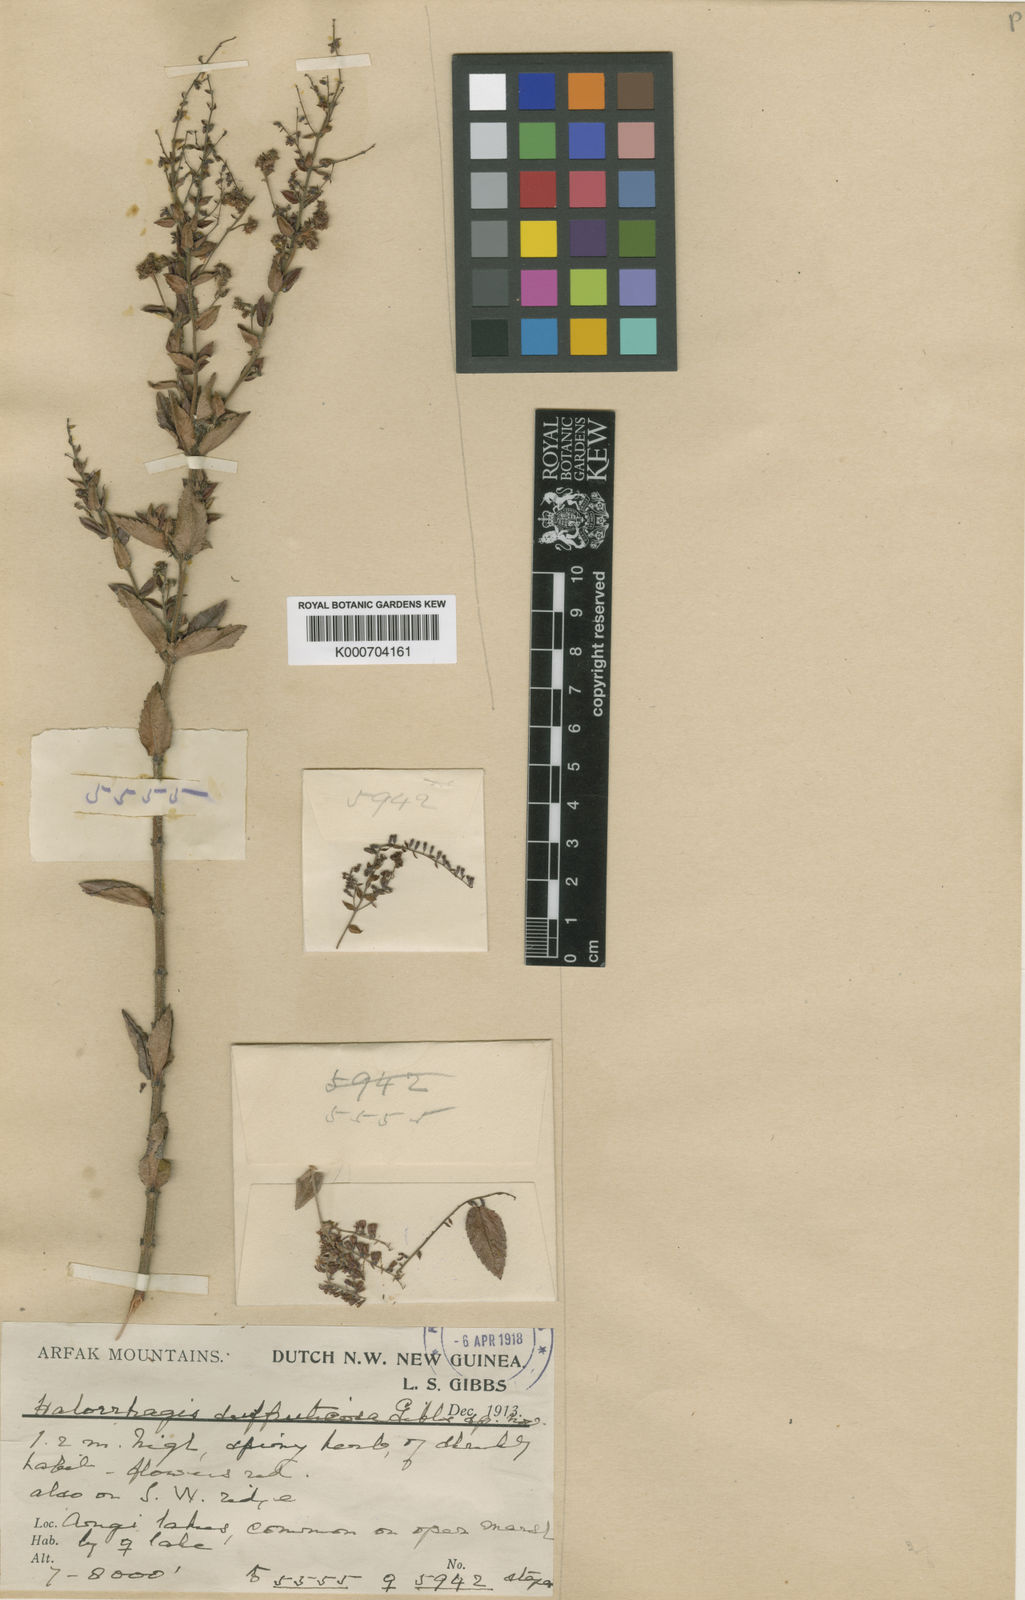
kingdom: Plantae
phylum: Tracheophyta
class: Magnoliopsida
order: Saxifragales
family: Haloragaceae
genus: Gonocarpus
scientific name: Gonocarpus
